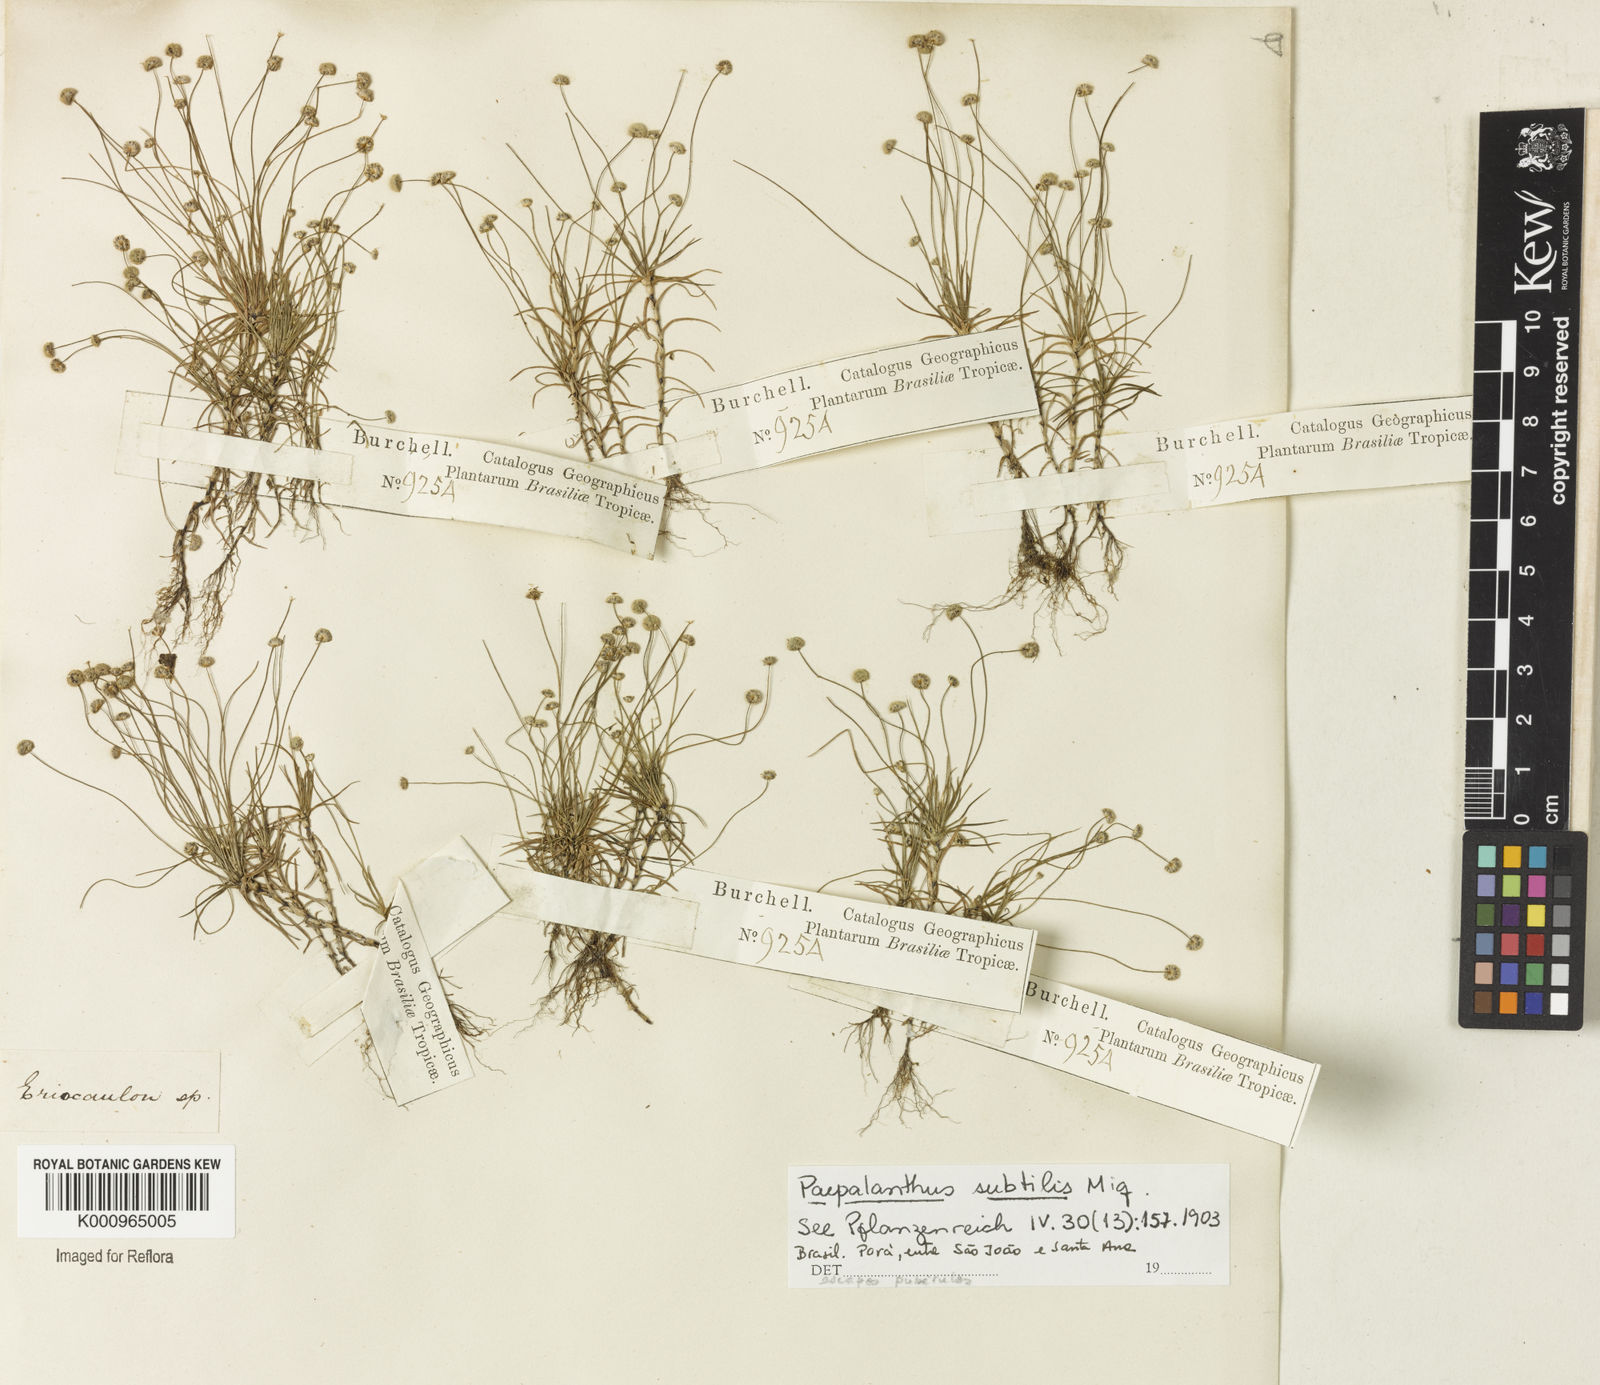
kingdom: Plantae
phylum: Tracheophyta
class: Liliopsida
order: Poales
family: Eriocaulaceae
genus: Paepalanthus
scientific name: Paepalanthus subtilis
